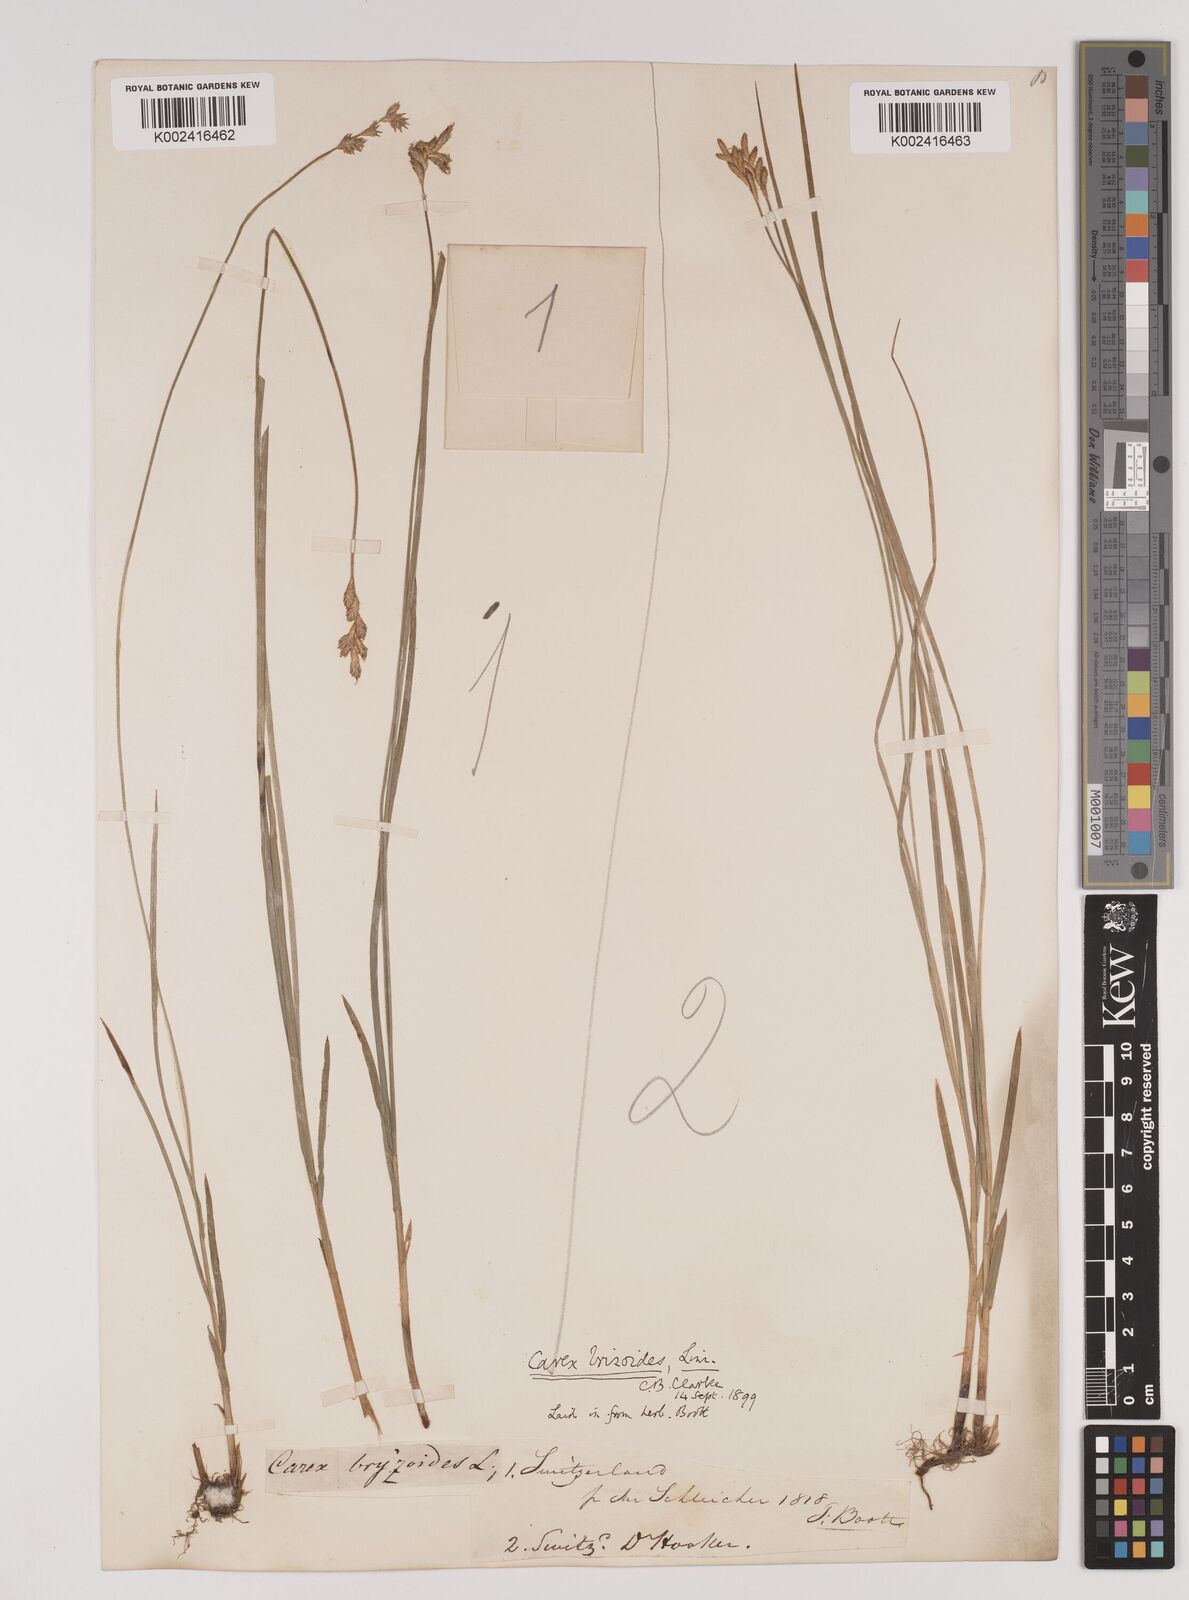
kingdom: Plantae
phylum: Tracheophyta
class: Liliopsida
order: Poales
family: Cyperaceae
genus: Carex
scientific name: Carex brizoides
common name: Quaking-grass sedge
